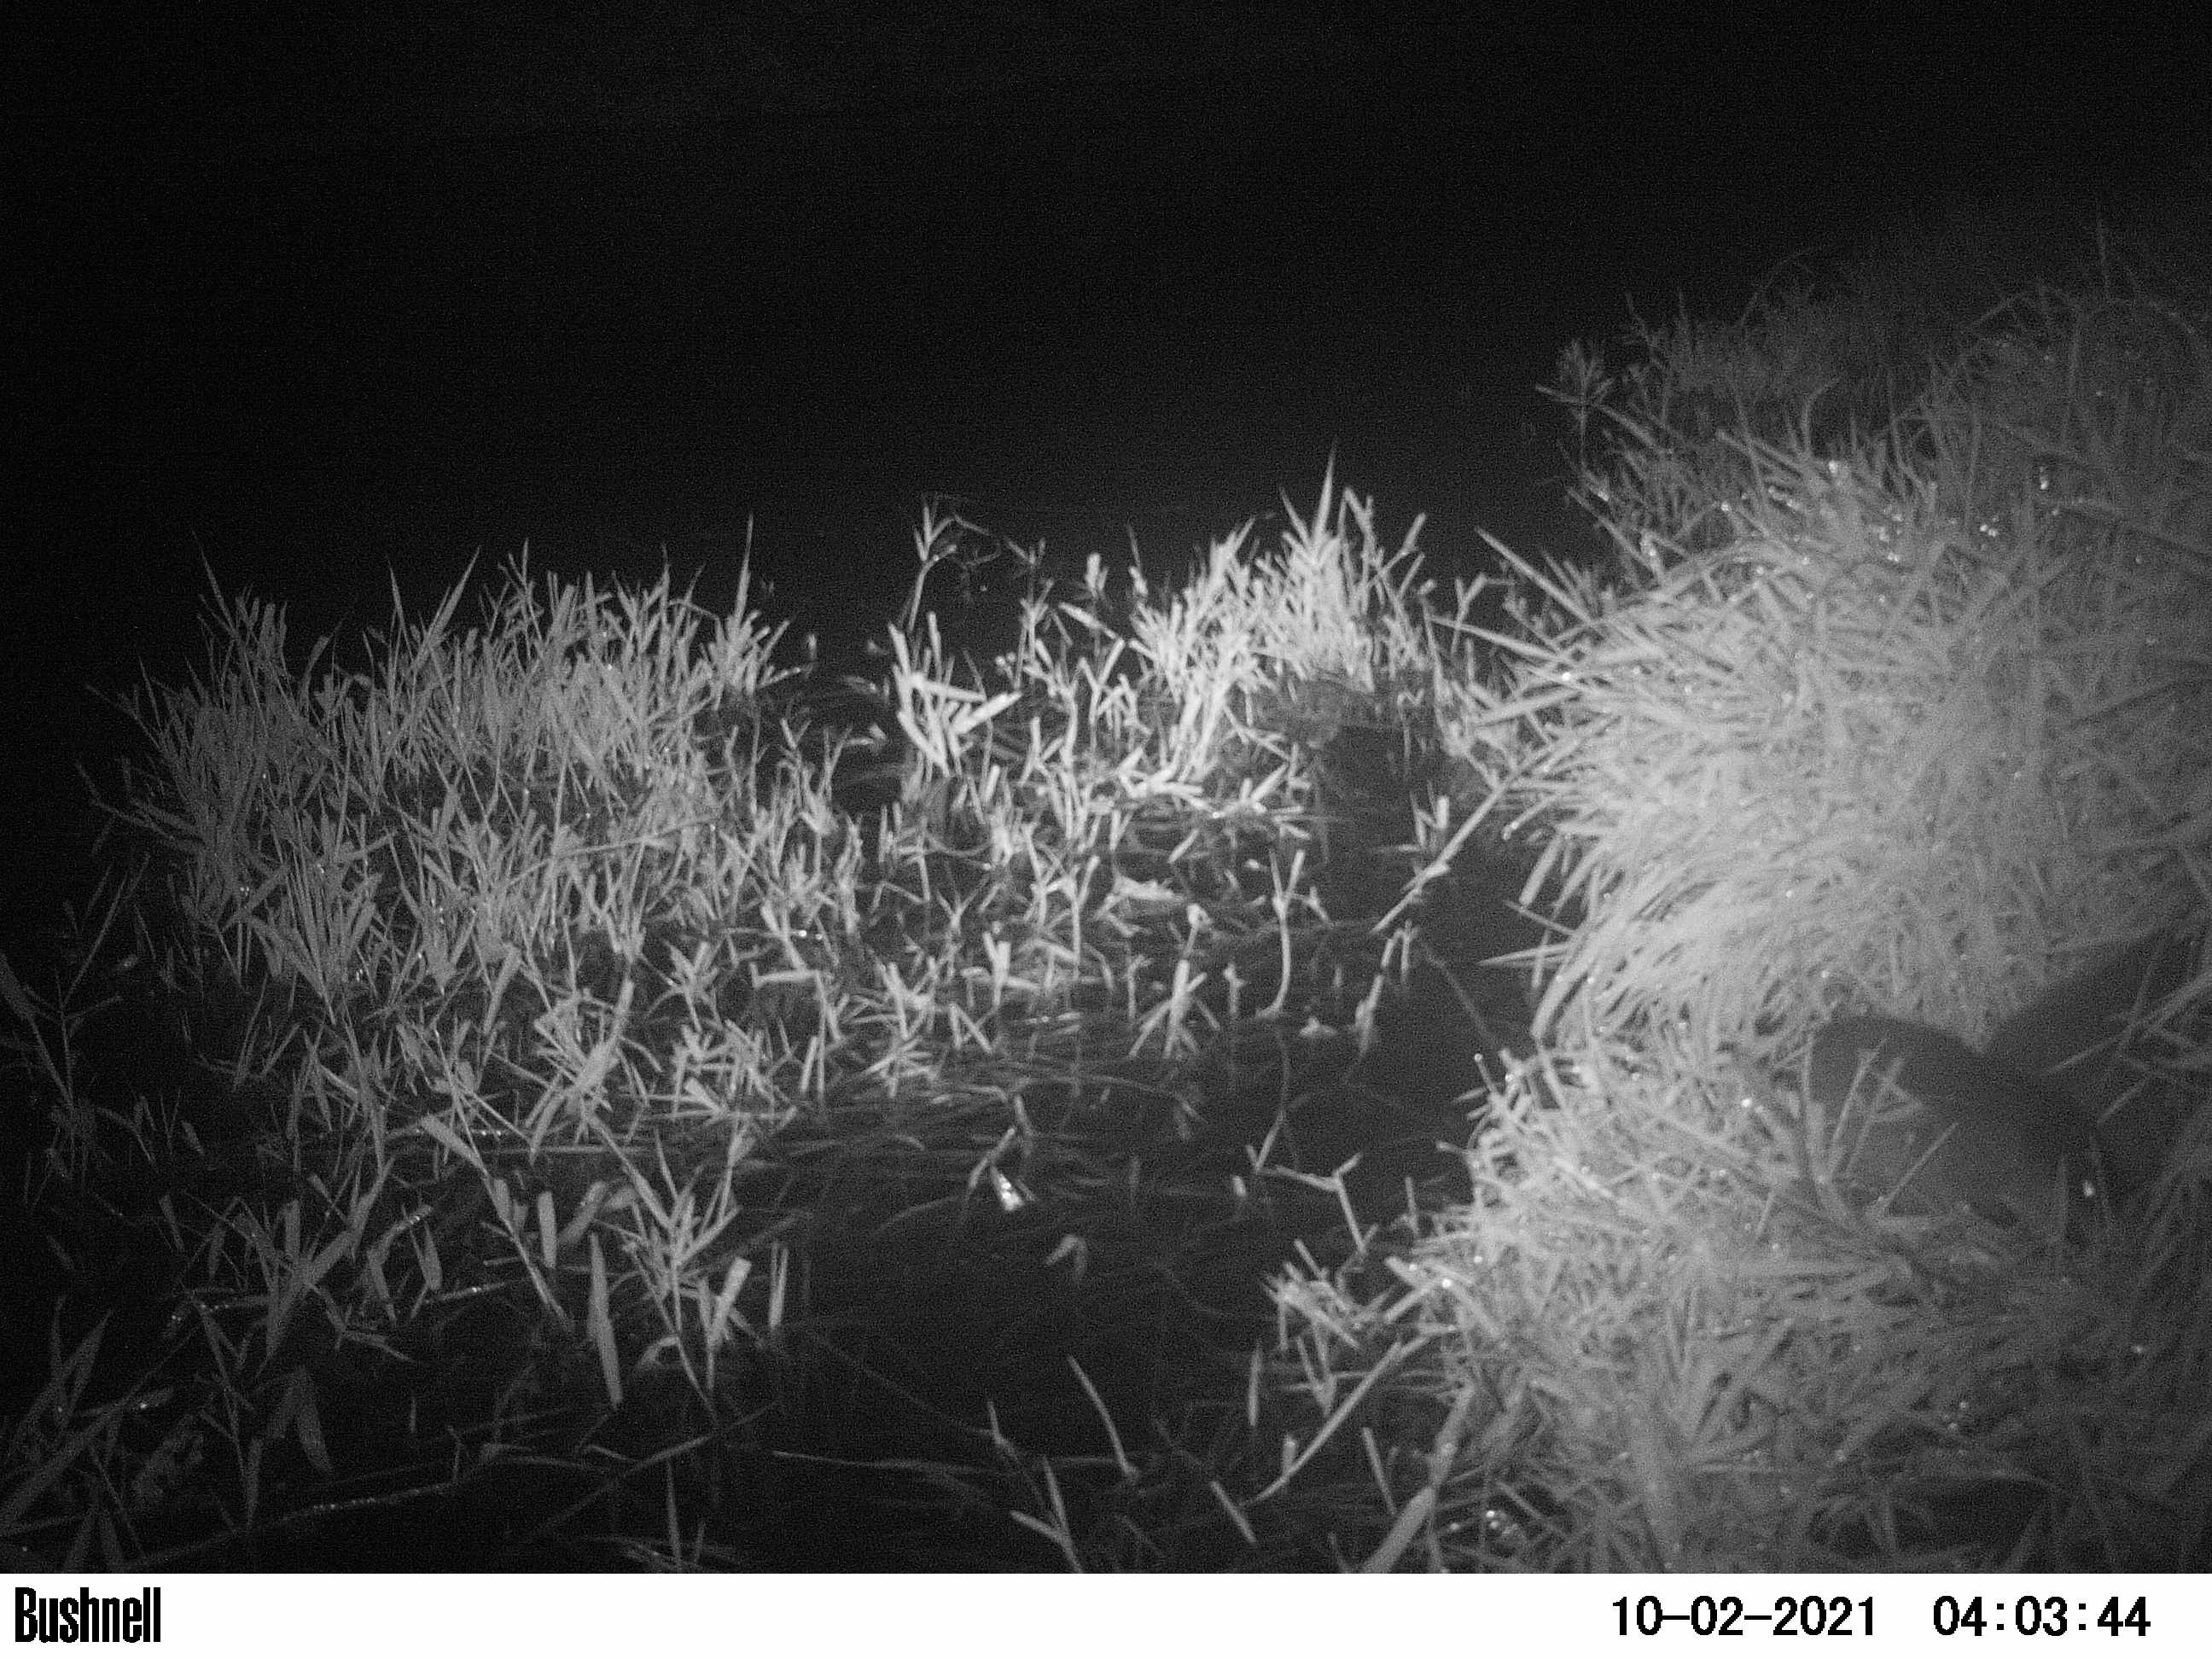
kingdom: Animalia
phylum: Chordata
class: Mammalia
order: Rodentia
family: Cricetidae
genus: Ondatra
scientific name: Ondatra zibethicus
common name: Muskrat
